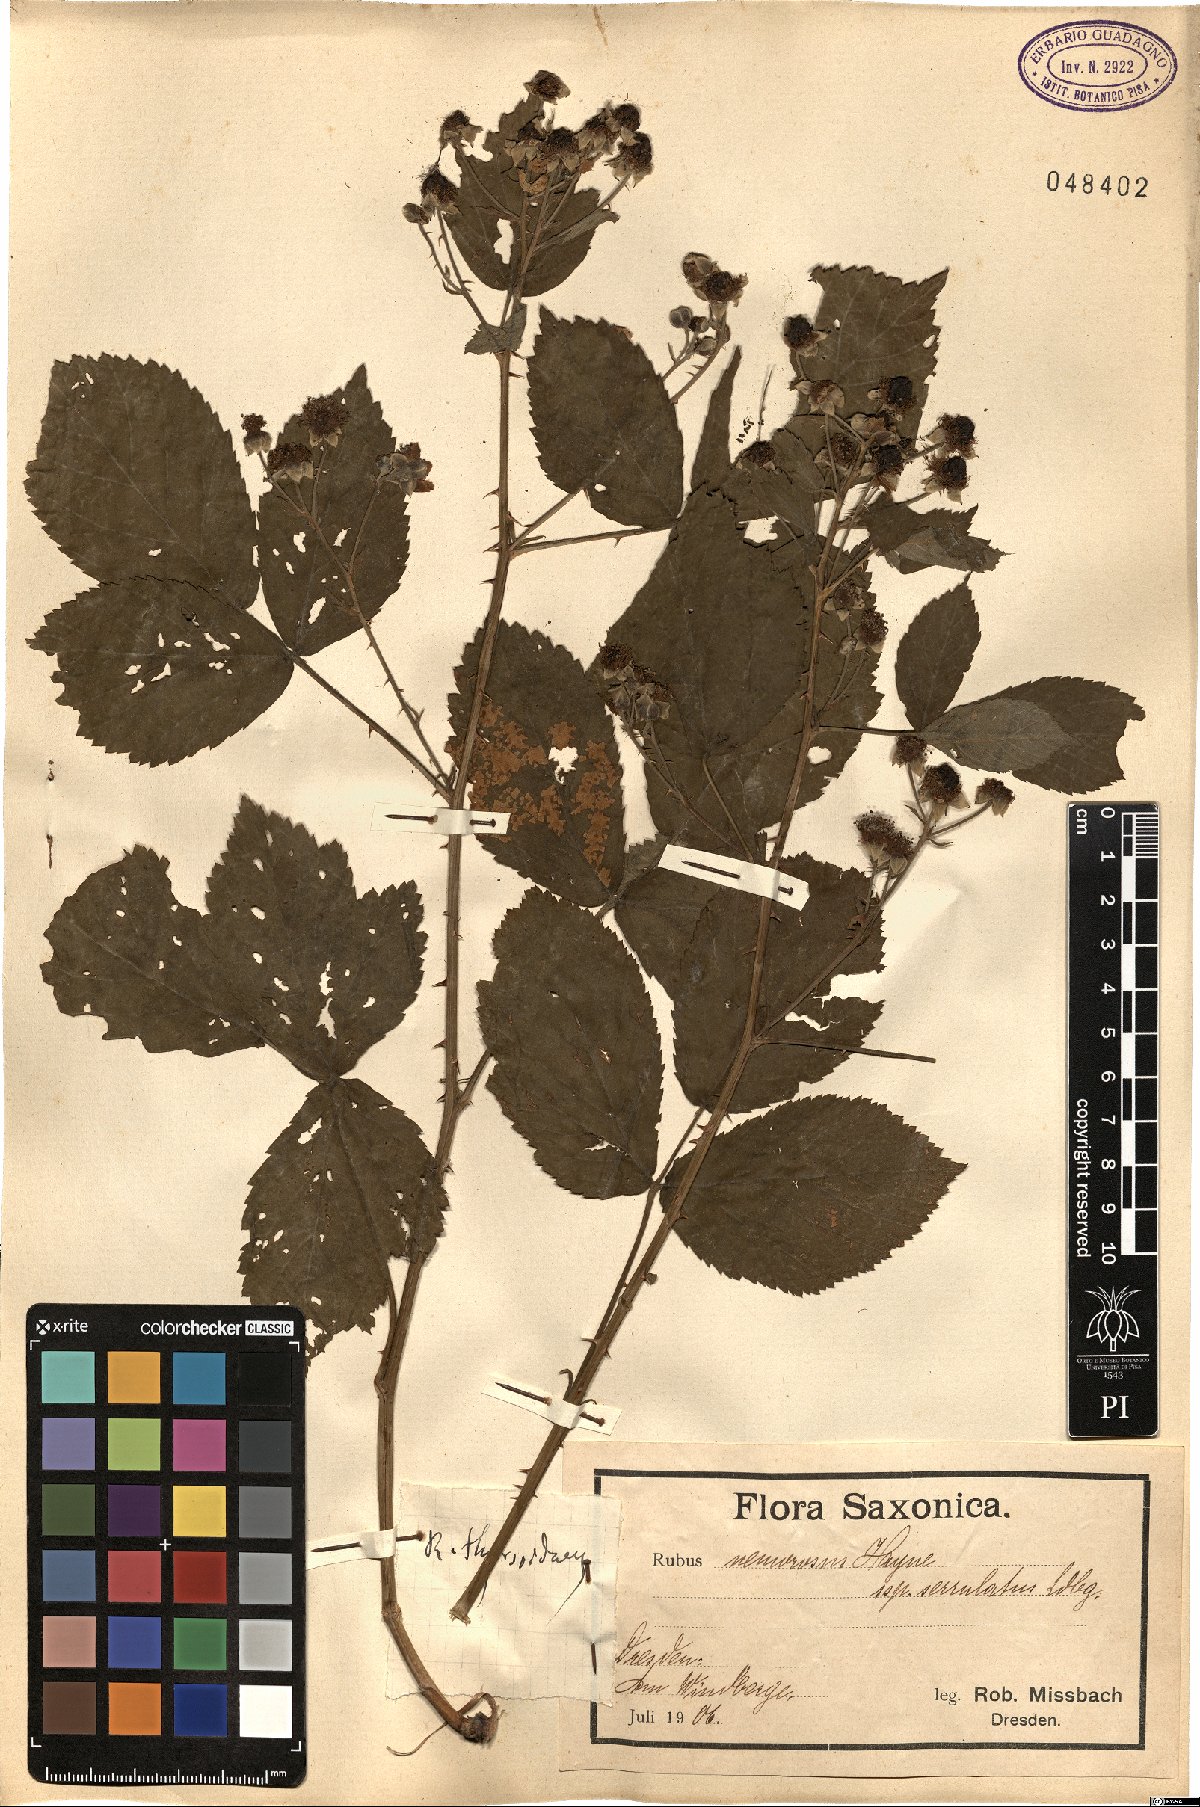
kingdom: Plantae
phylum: Tracheophyta
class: Magnoliopsida
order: Rosales
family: Rosaceae
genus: Rubus
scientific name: Rubus
